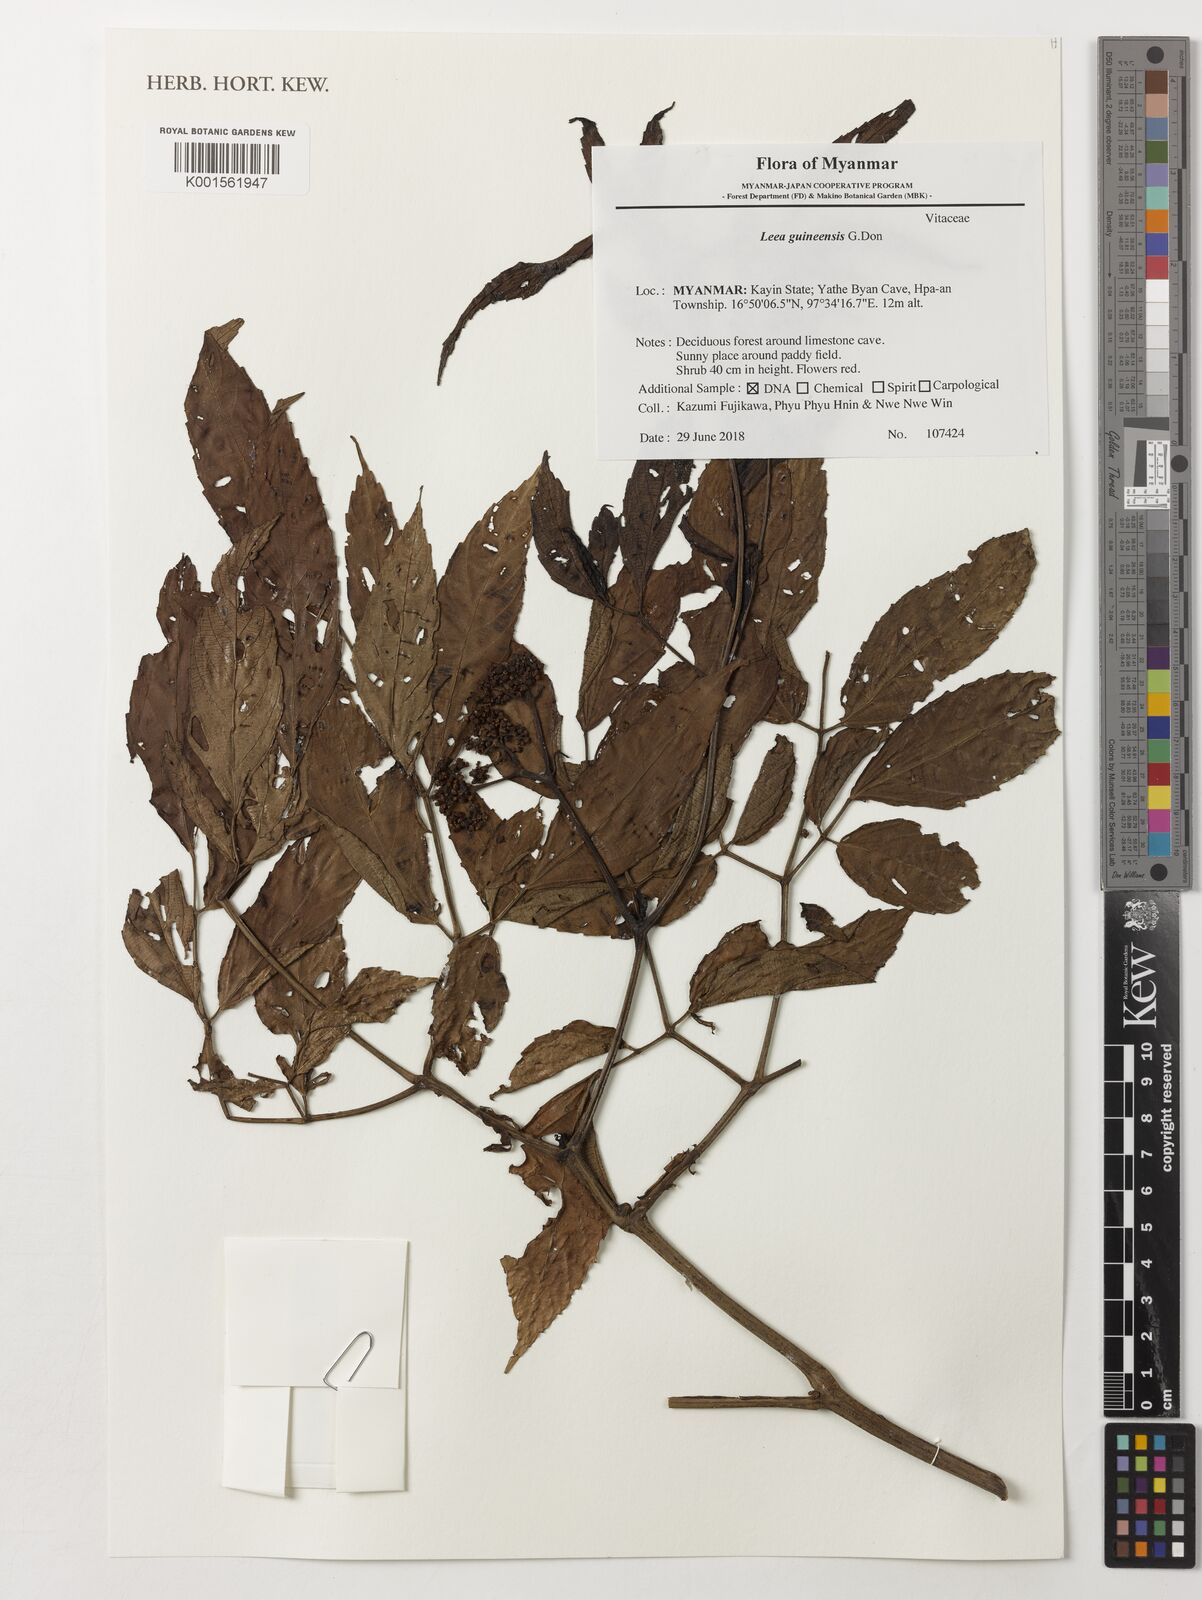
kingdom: Plantae
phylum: Tracheophyta
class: Magnoliopsida
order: Vitales
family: Vitaceae
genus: Leea
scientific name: Leea guineensis
